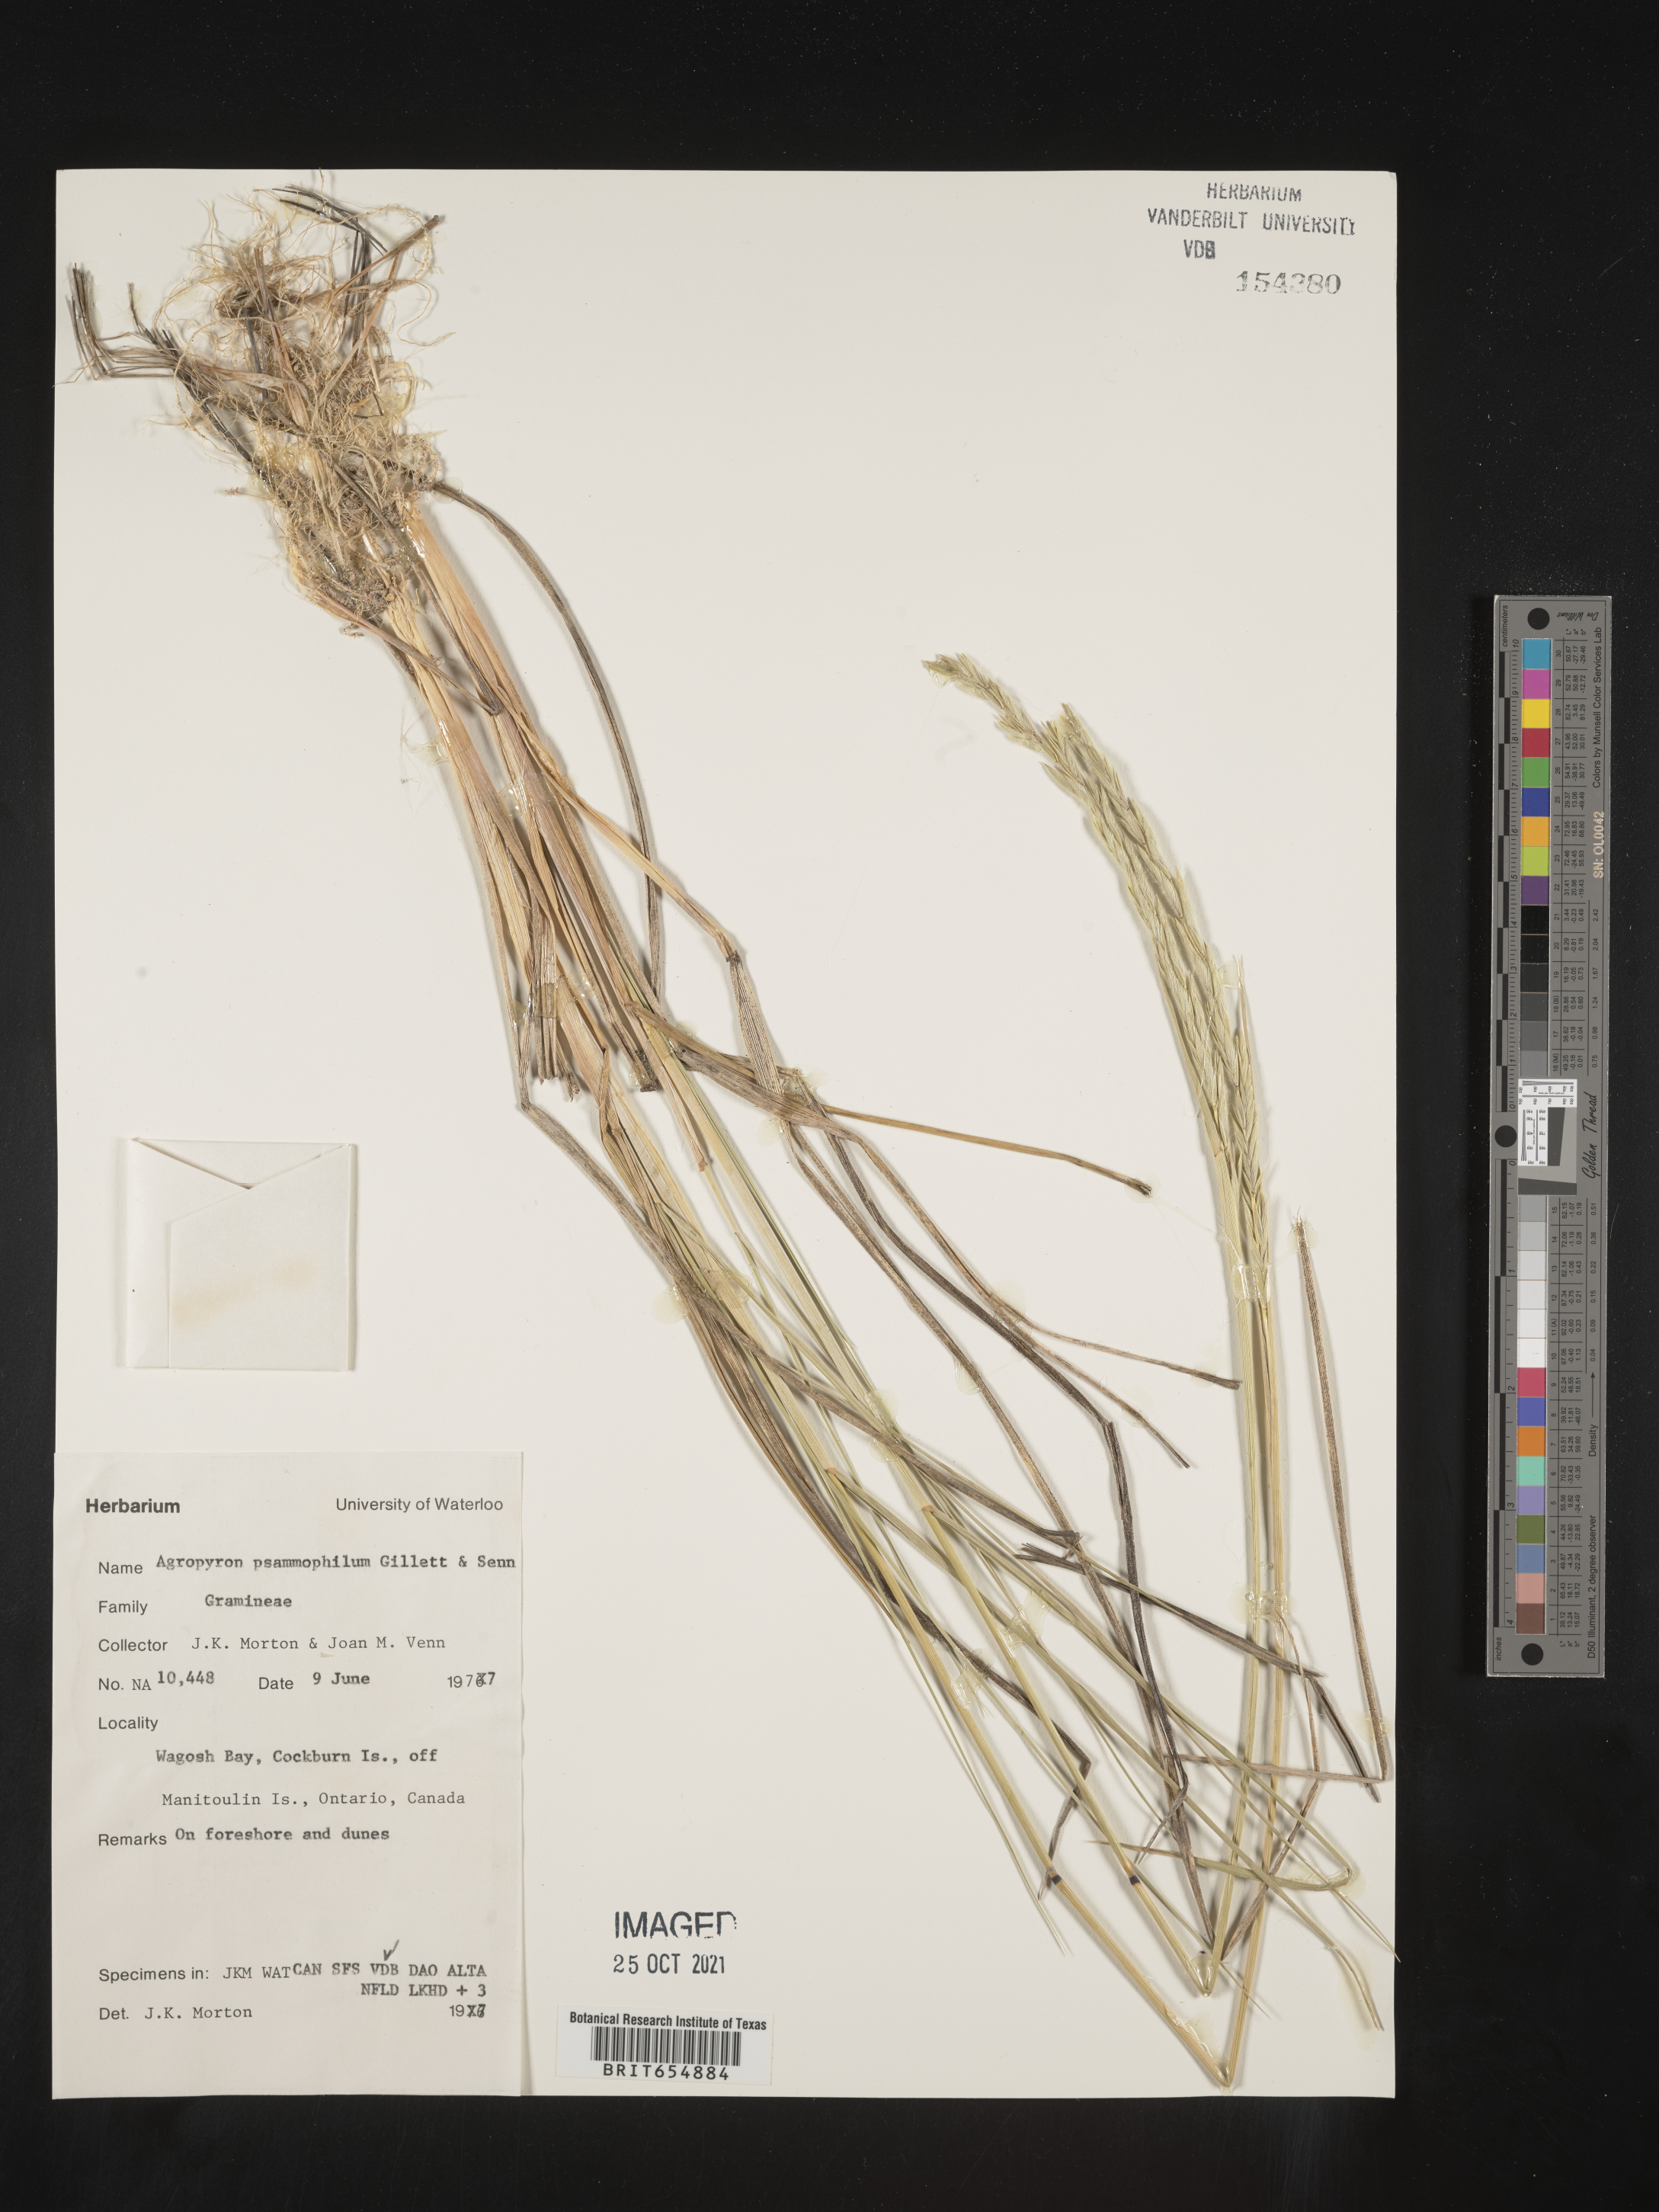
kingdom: Plantae
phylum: Tracheophyta
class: Liliopsida
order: Poales
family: Poaceae
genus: Agropyron
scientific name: Agropyron
